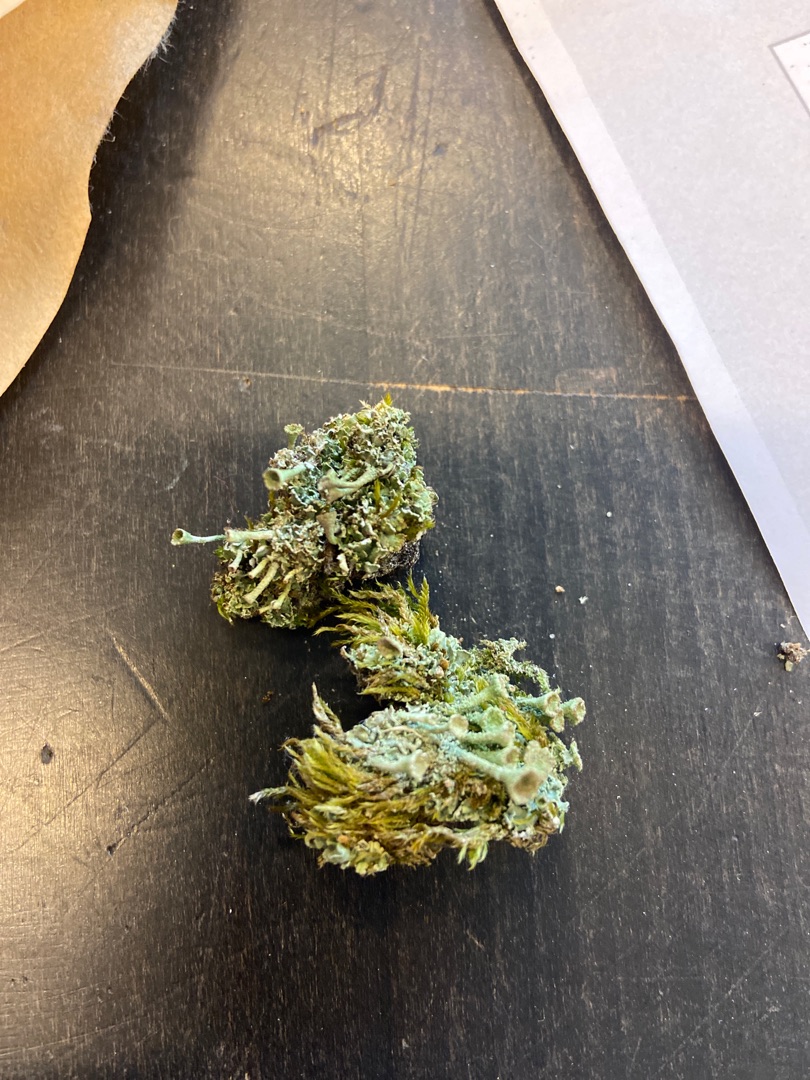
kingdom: Fungi
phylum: Ascomycota
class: Lecanoromycetes
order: Lecanorales
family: Cladoniaceae
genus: Cladonia
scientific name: Cladonia chlorophaea
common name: Brungrøn bægerlav
